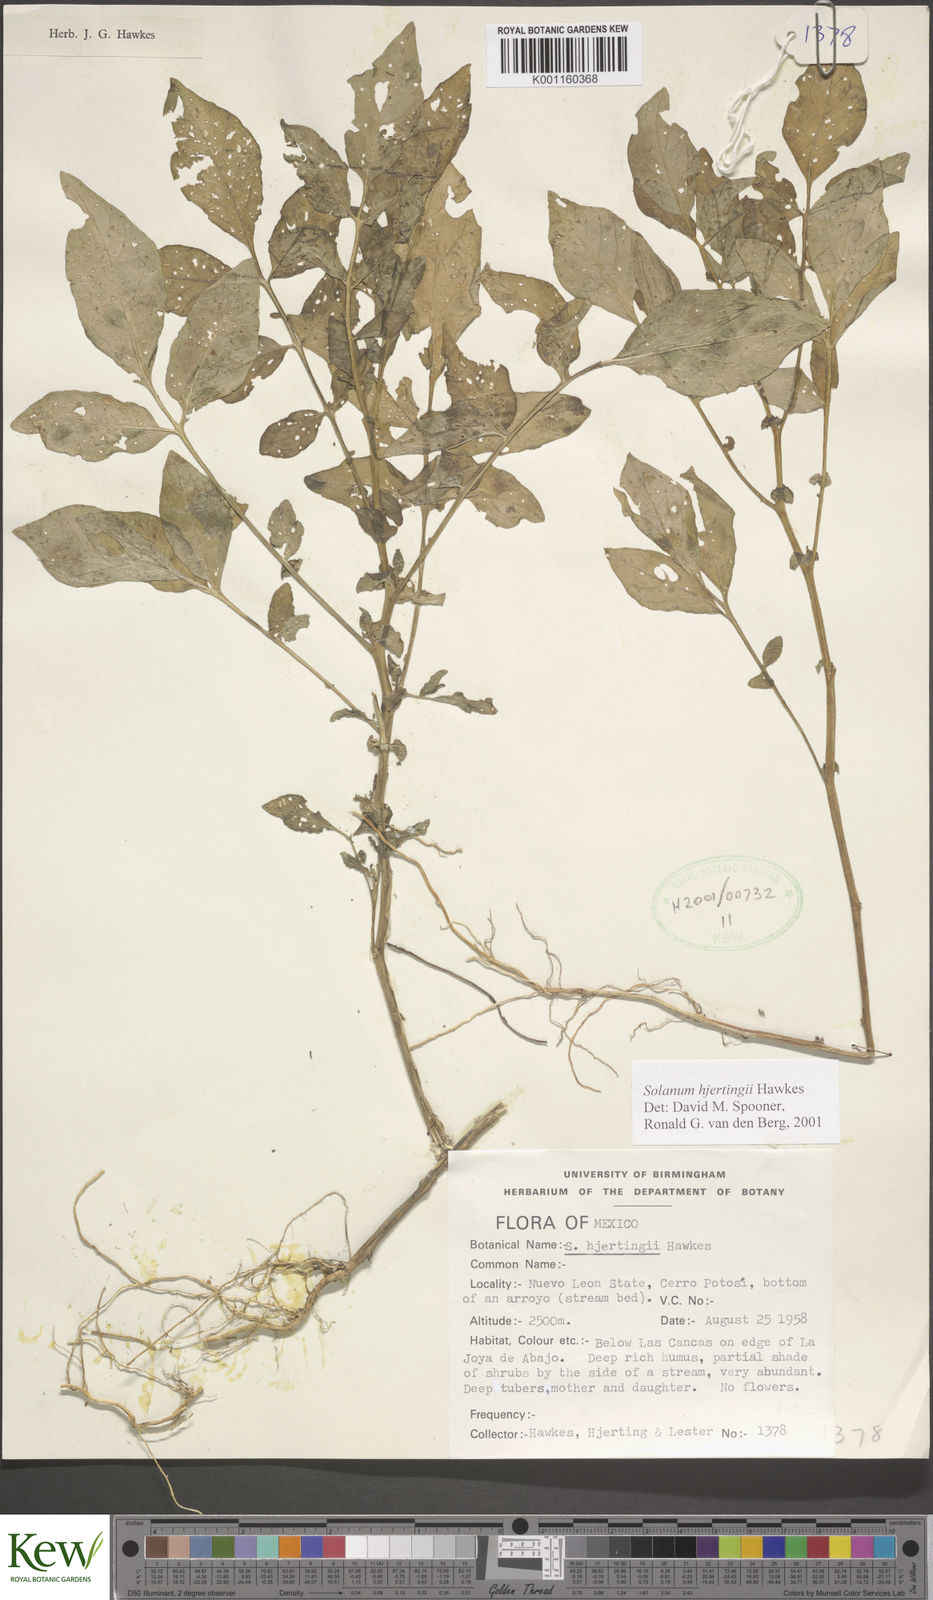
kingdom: Plantae
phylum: Tracheophyta
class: Magnoliopsida
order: Solanales
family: Solanaceae
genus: Solanum
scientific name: Solanum hjertingii
